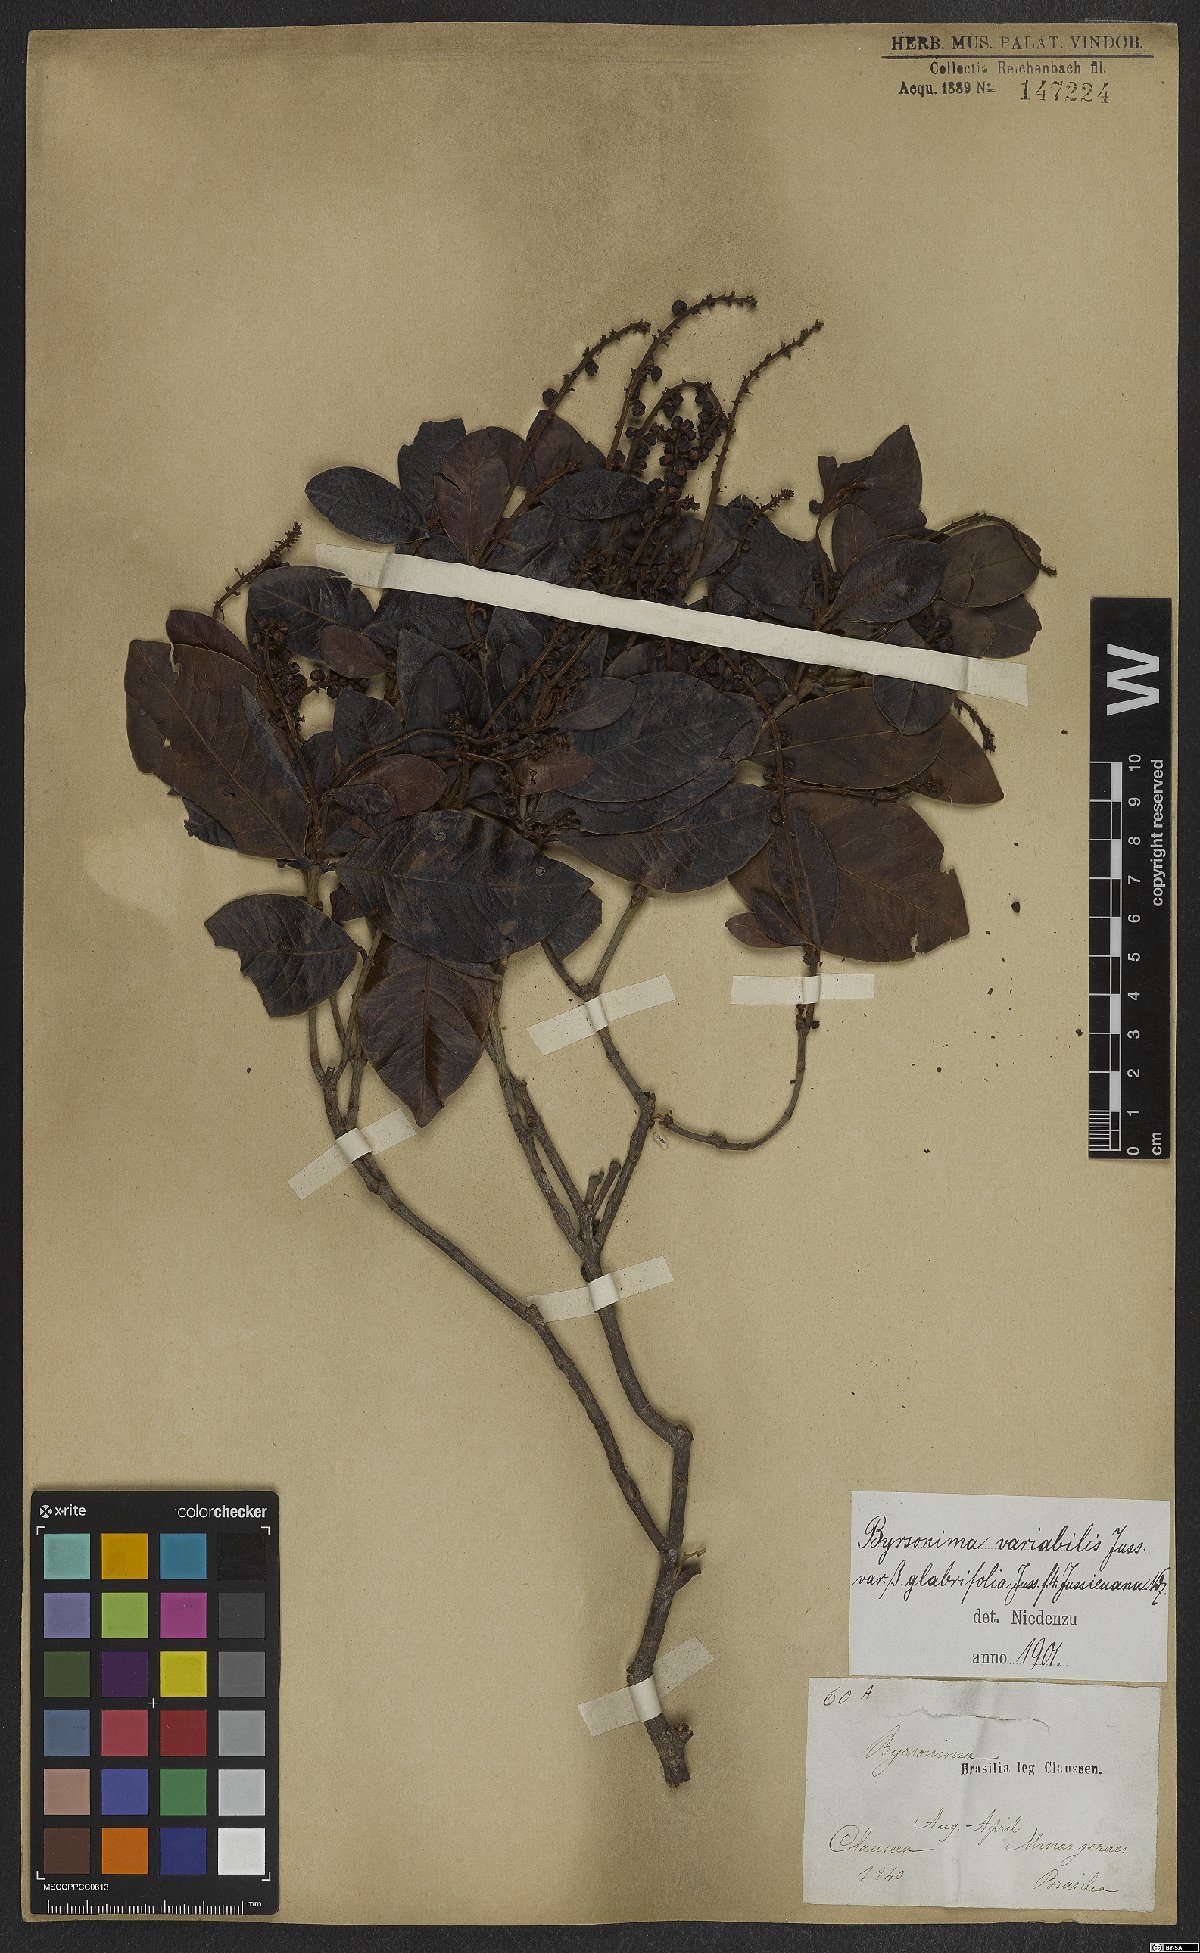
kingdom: Plantae
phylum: Tracheophyta
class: Magnoliopsida
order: Malpighiales
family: Malpighiaceae
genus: Byrsonima
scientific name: Byrsonima variabilis
